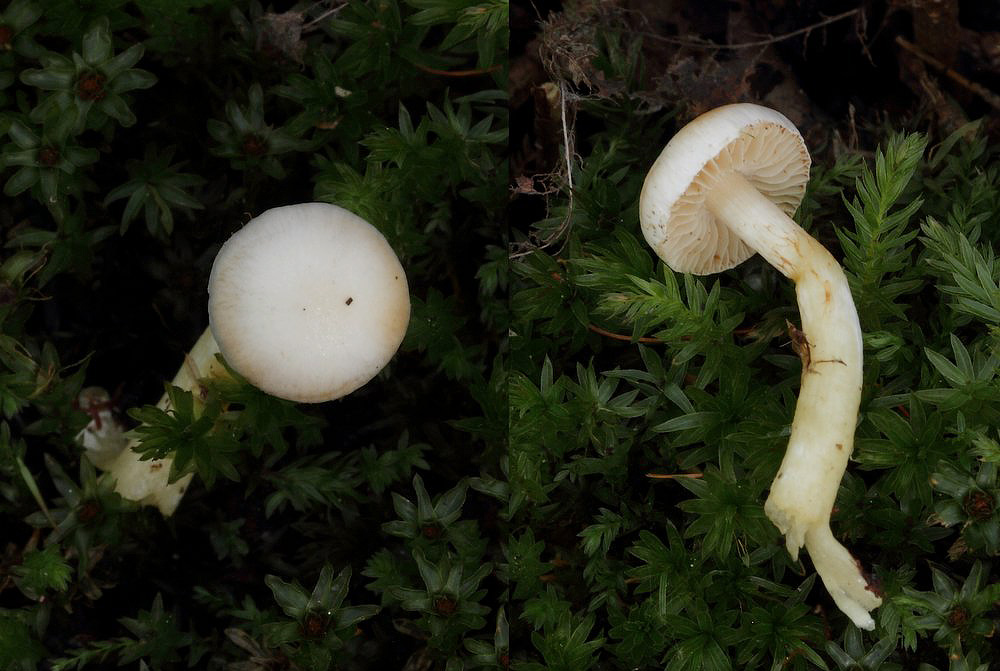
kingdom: Fungi
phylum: Basidiomycota
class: Agaricomycetes
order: Agaricales
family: Cortinariaceae
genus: Thaxterogaster
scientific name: Thaxterogaster
